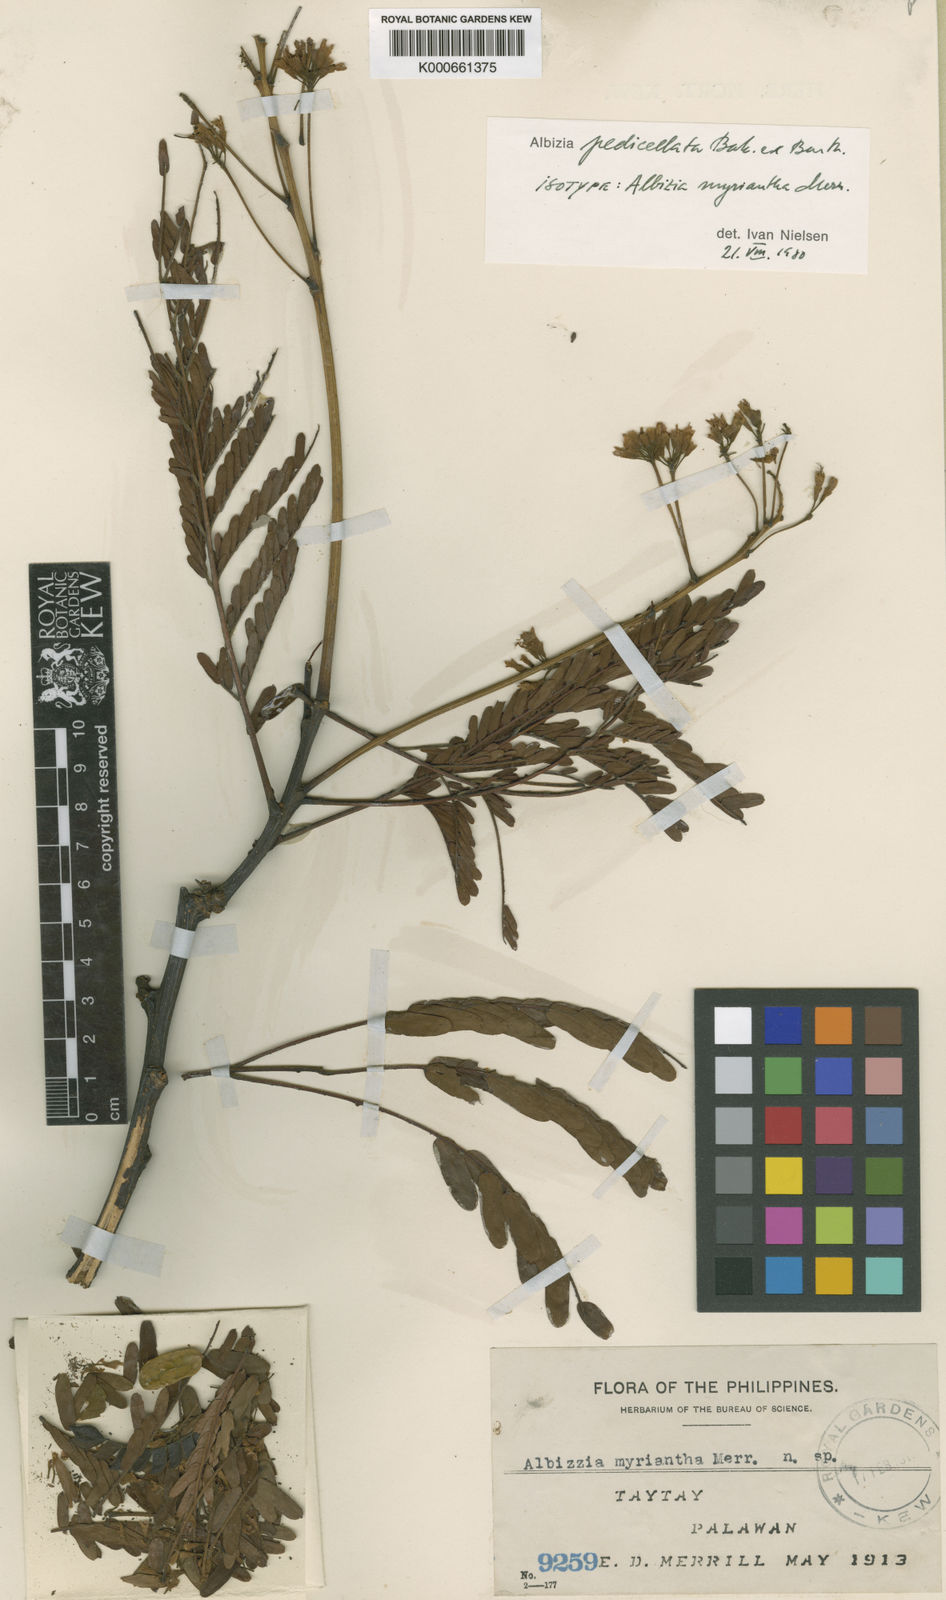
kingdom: Plantae
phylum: Tracheophyta
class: Magnoliopsida
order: Fabales
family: Fabaceae
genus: Albizia
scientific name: Albizia pedicellata
